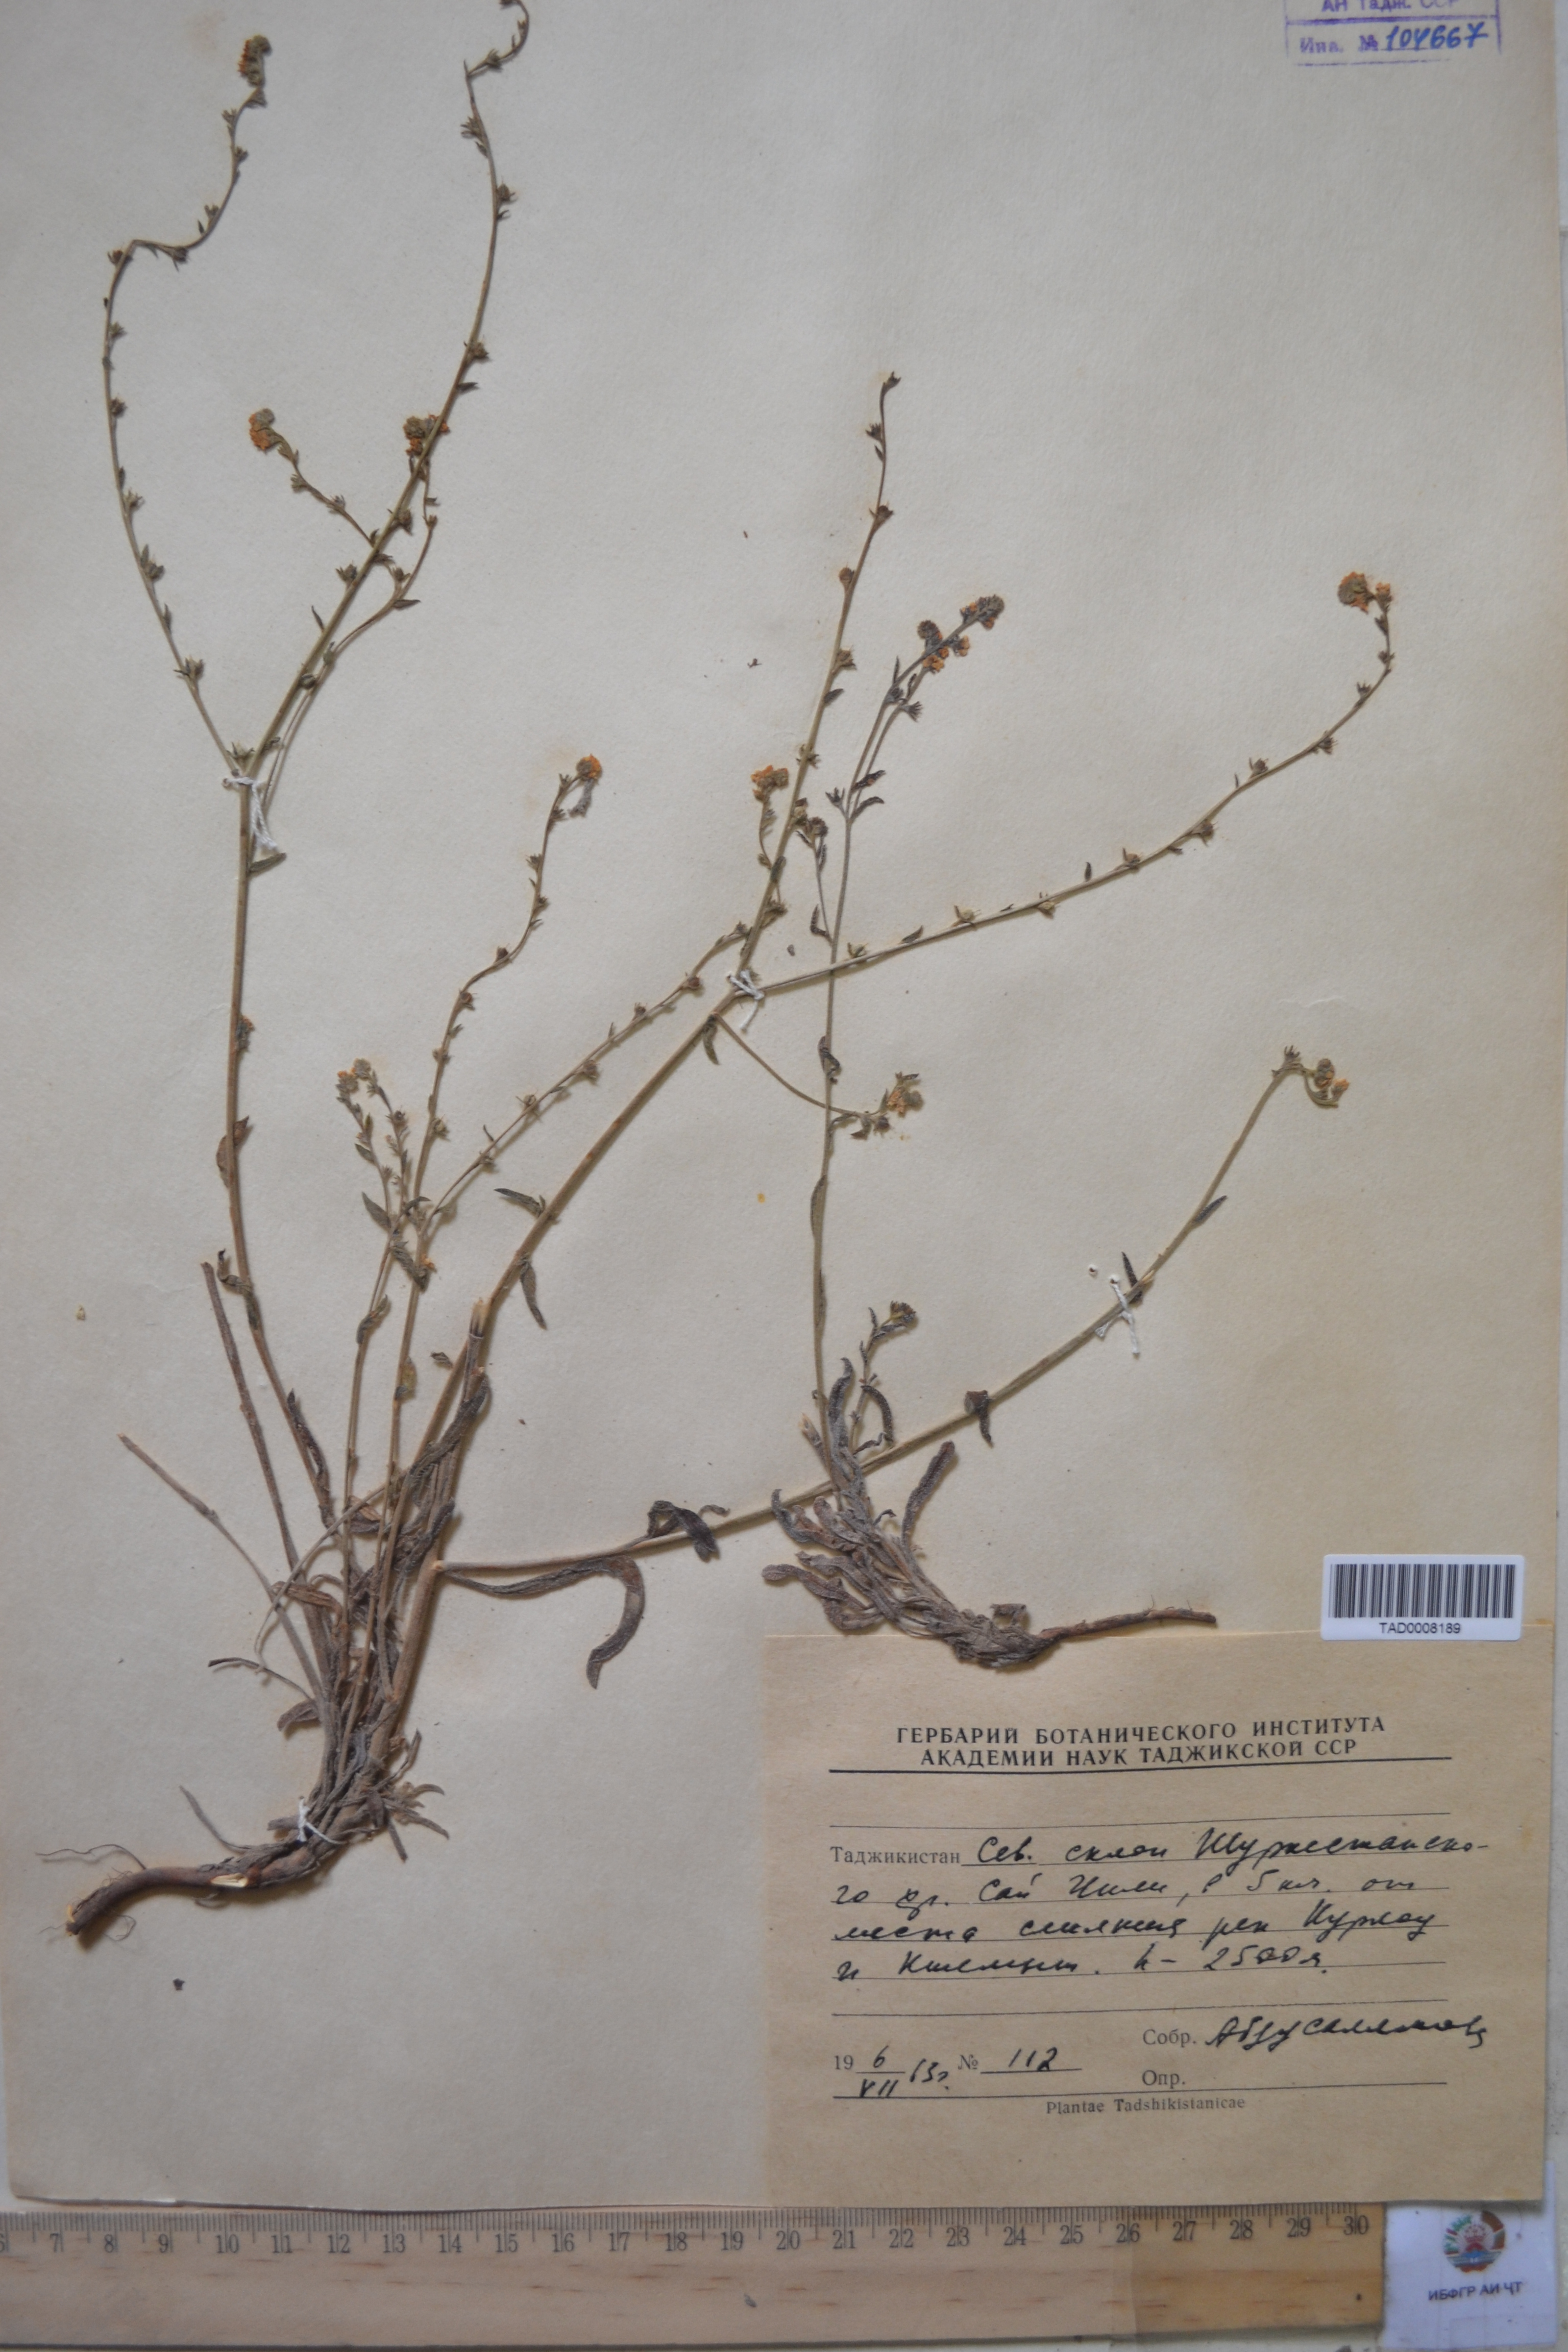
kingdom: Plantae
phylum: Tracheophyta
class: Magnoliopsida
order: Boraginales
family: Boraginaceae
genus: Lappula
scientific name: Lappula brachycentra
